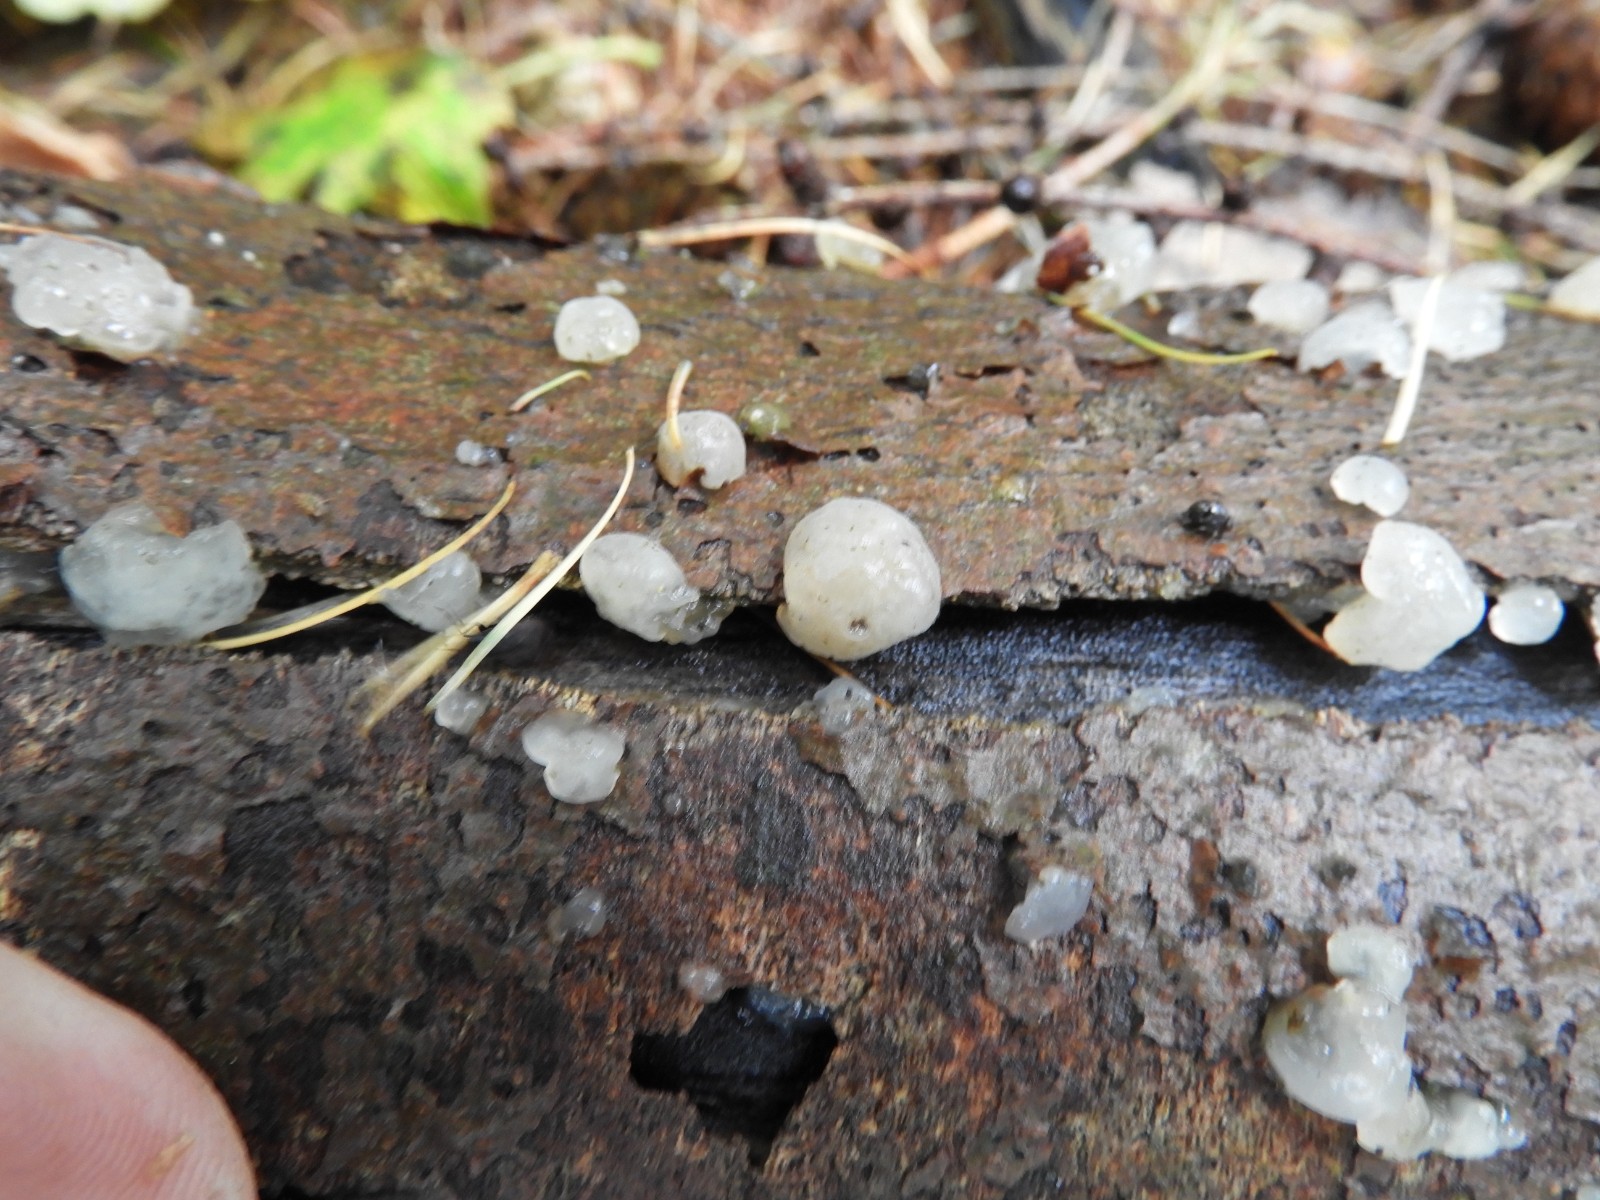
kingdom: Fungi
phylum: Basidiomycota
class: Agaricomycetes
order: Auriculariales
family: Hyaloriaceae
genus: Myxarium
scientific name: Myxarium nucleatum
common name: klar bævretop
